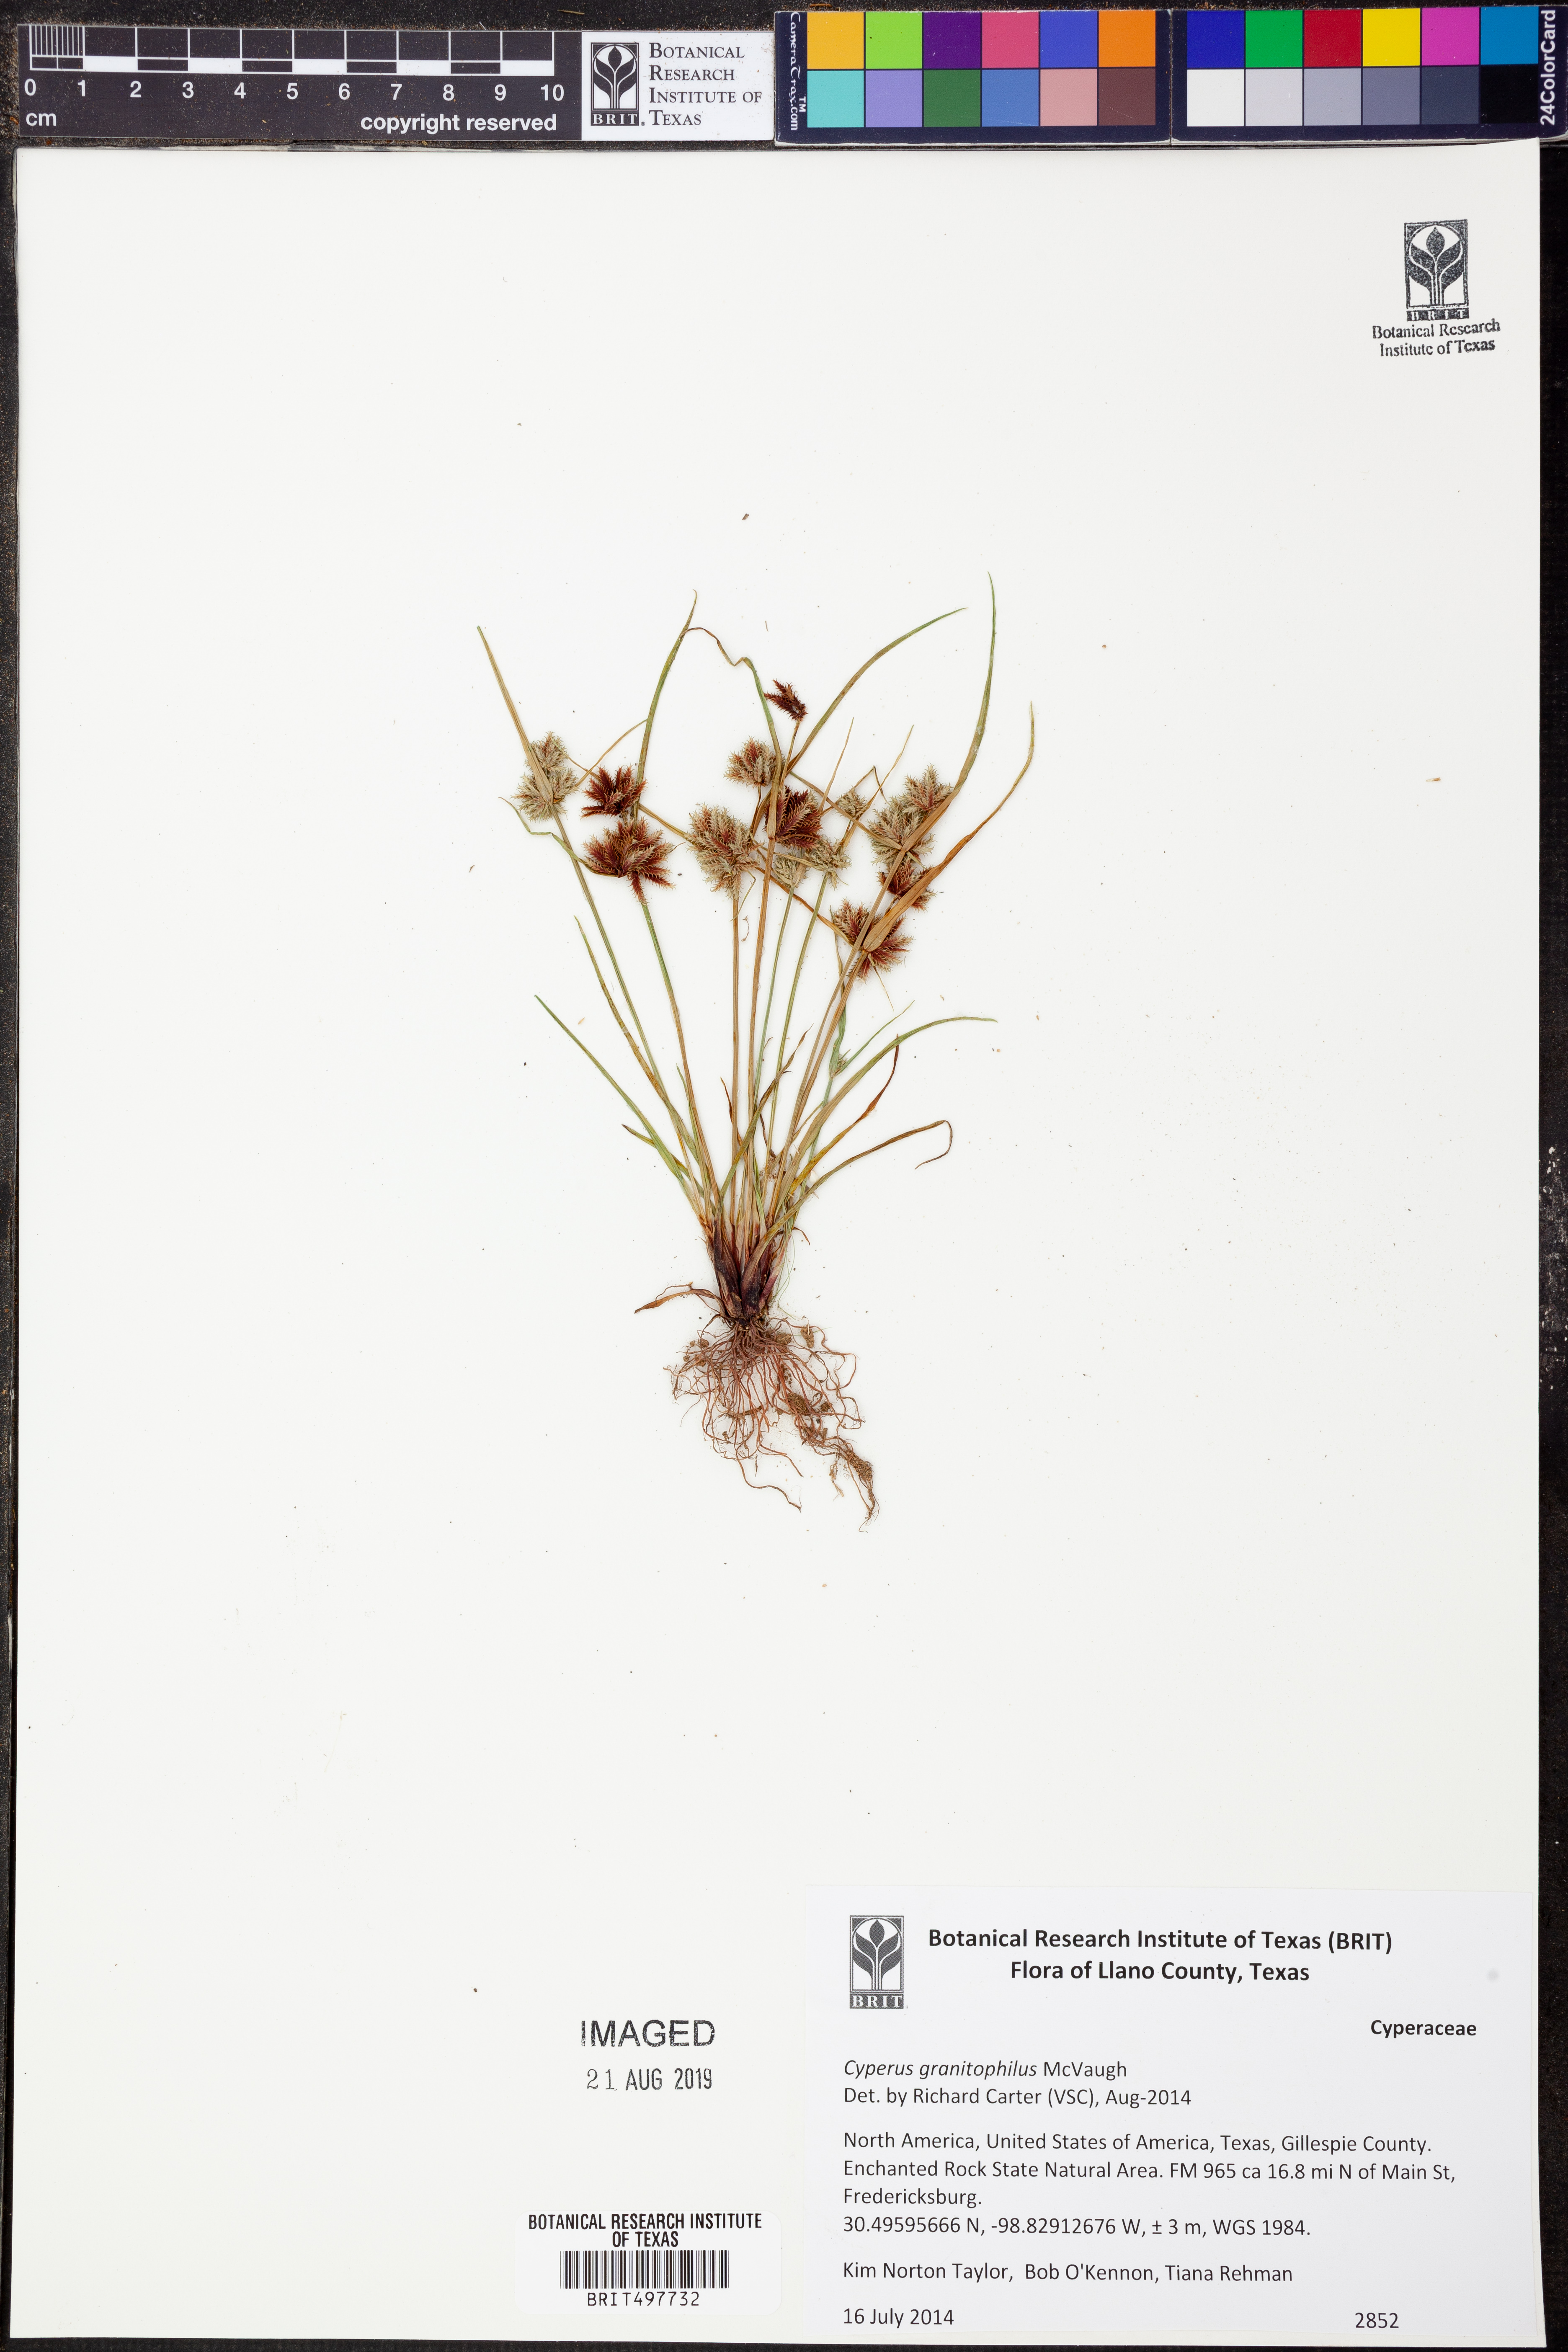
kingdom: Plantae
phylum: Tracheophyta
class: Liliopsida
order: Poales
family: Cyperaceae
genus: Cyperus
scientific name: Cyperus granitophilus
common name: Granite flatsedge
